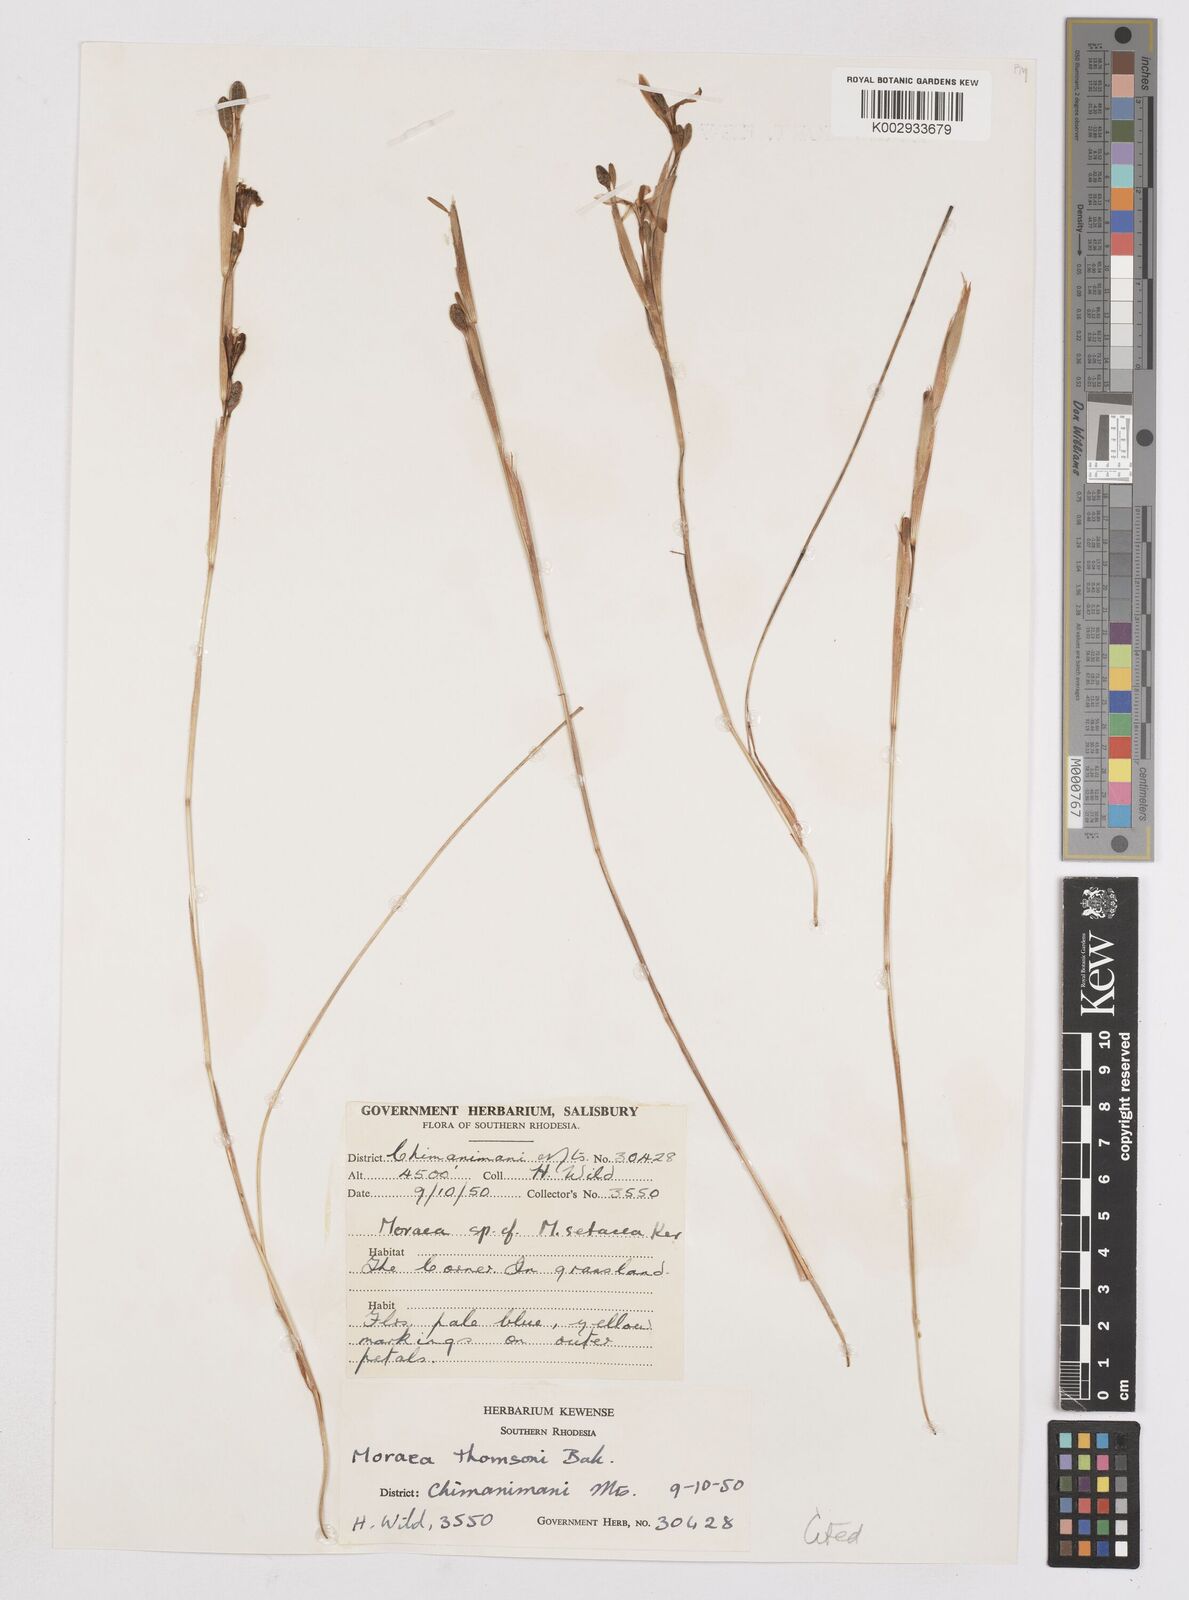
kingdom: Plantae
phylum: Tracheophyta
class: Liliopsida
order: Asparagales
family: Iridaceae
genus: Moraea
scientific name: Moraea thomsonii
